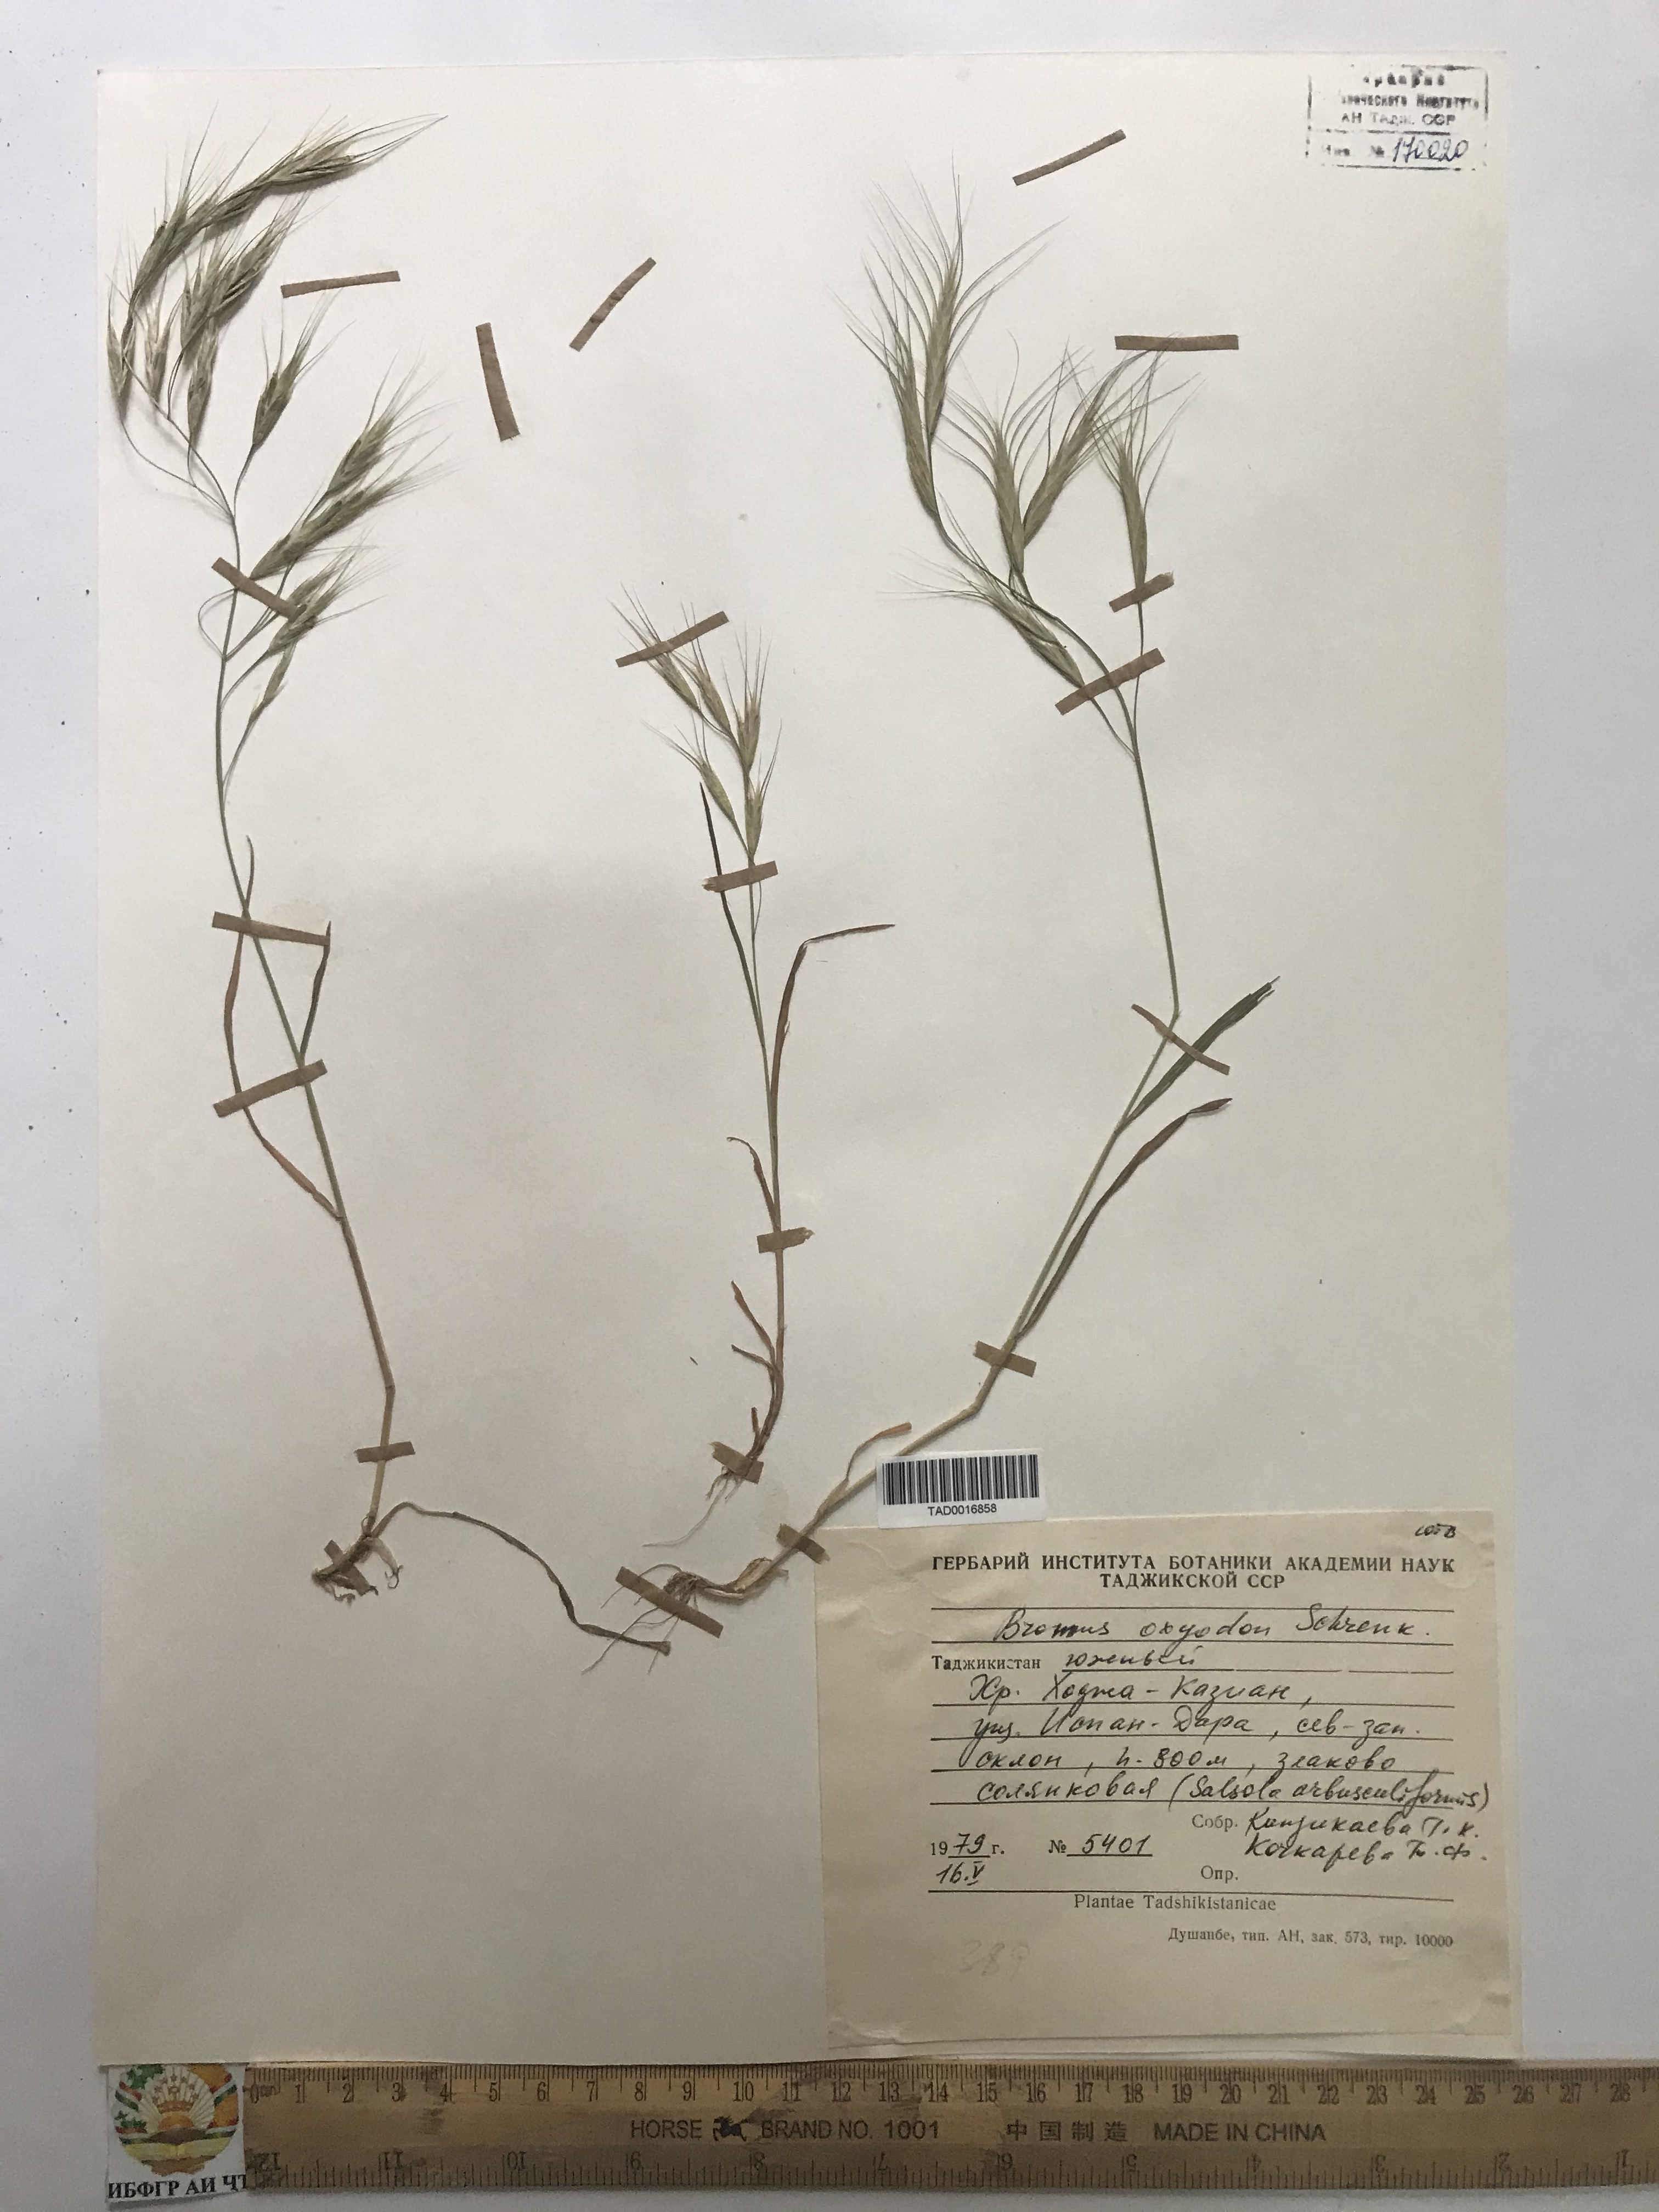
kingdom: Plantae
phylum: Tracheophyta
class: Liliopsida
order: Poales
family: Poaceae
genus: Bromus
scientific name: Bromus oxyodon
